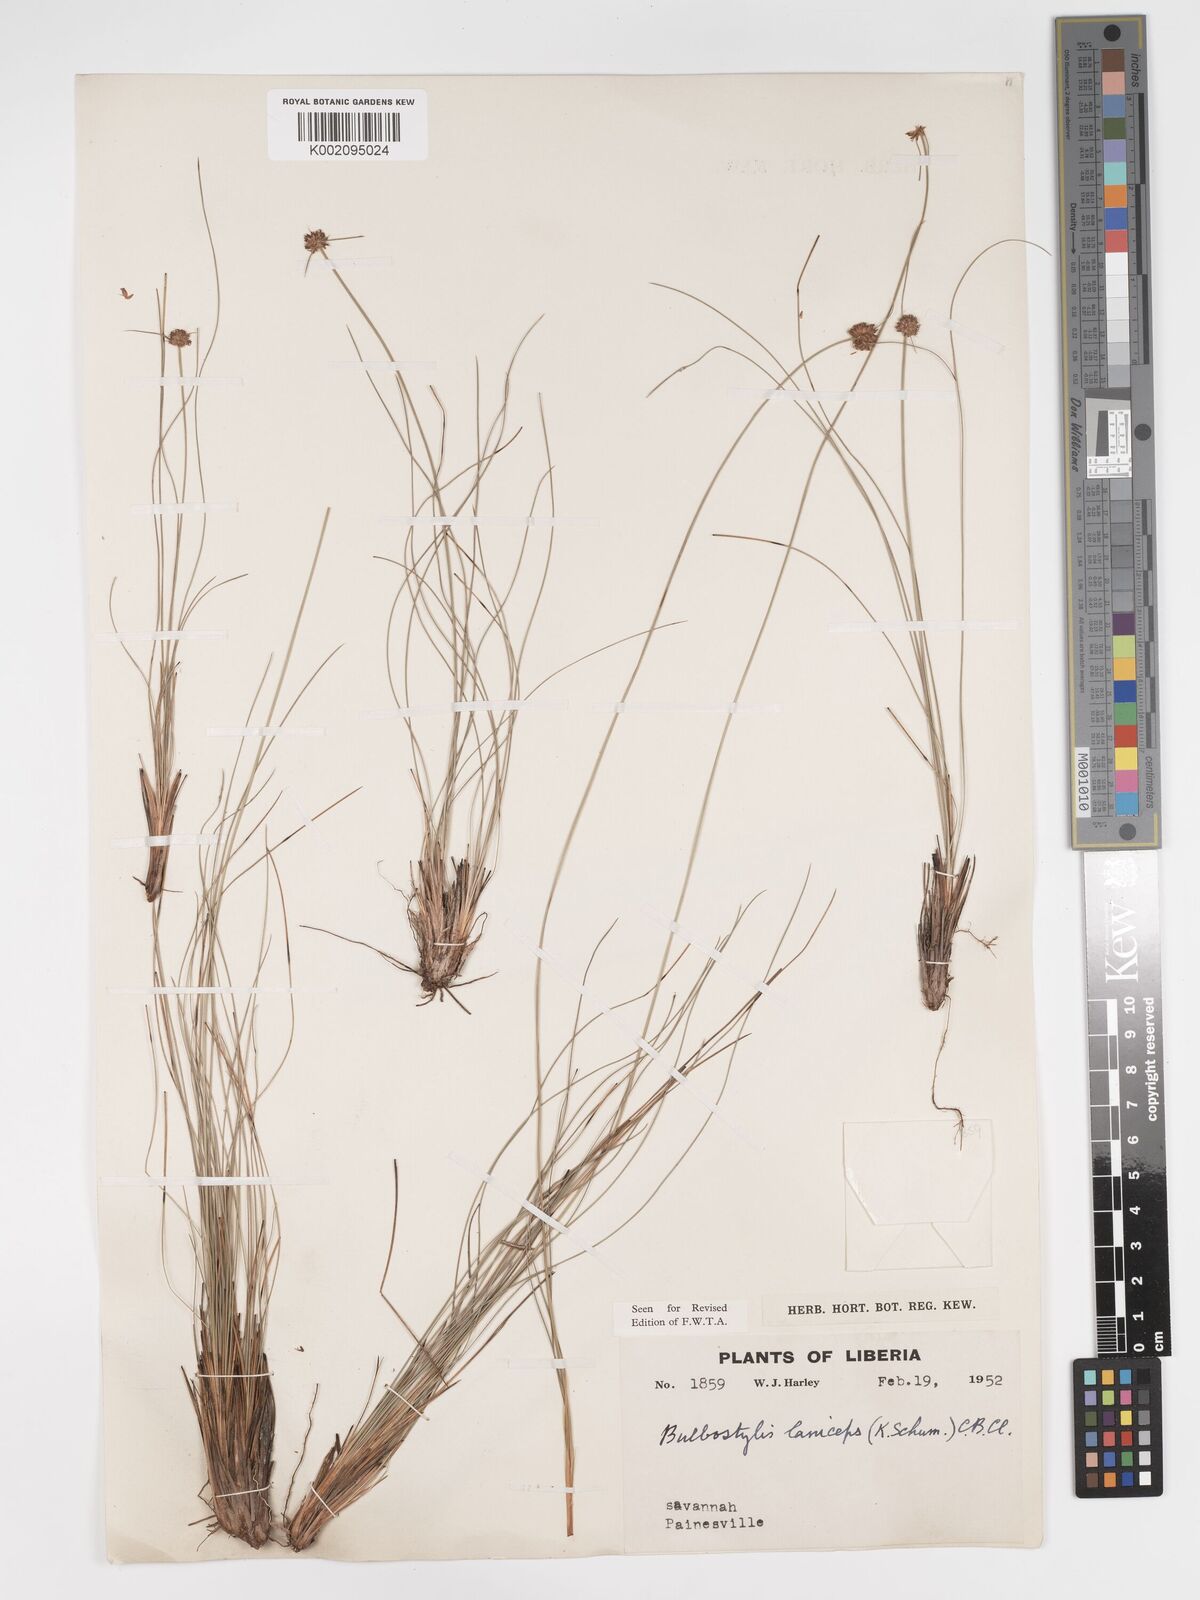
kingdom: Plantae
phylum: Tracheophyta
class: Liliopsida
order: Poales
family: Cyperaceae
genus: Bulbostylis
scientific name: Bulbostylis laniceps
